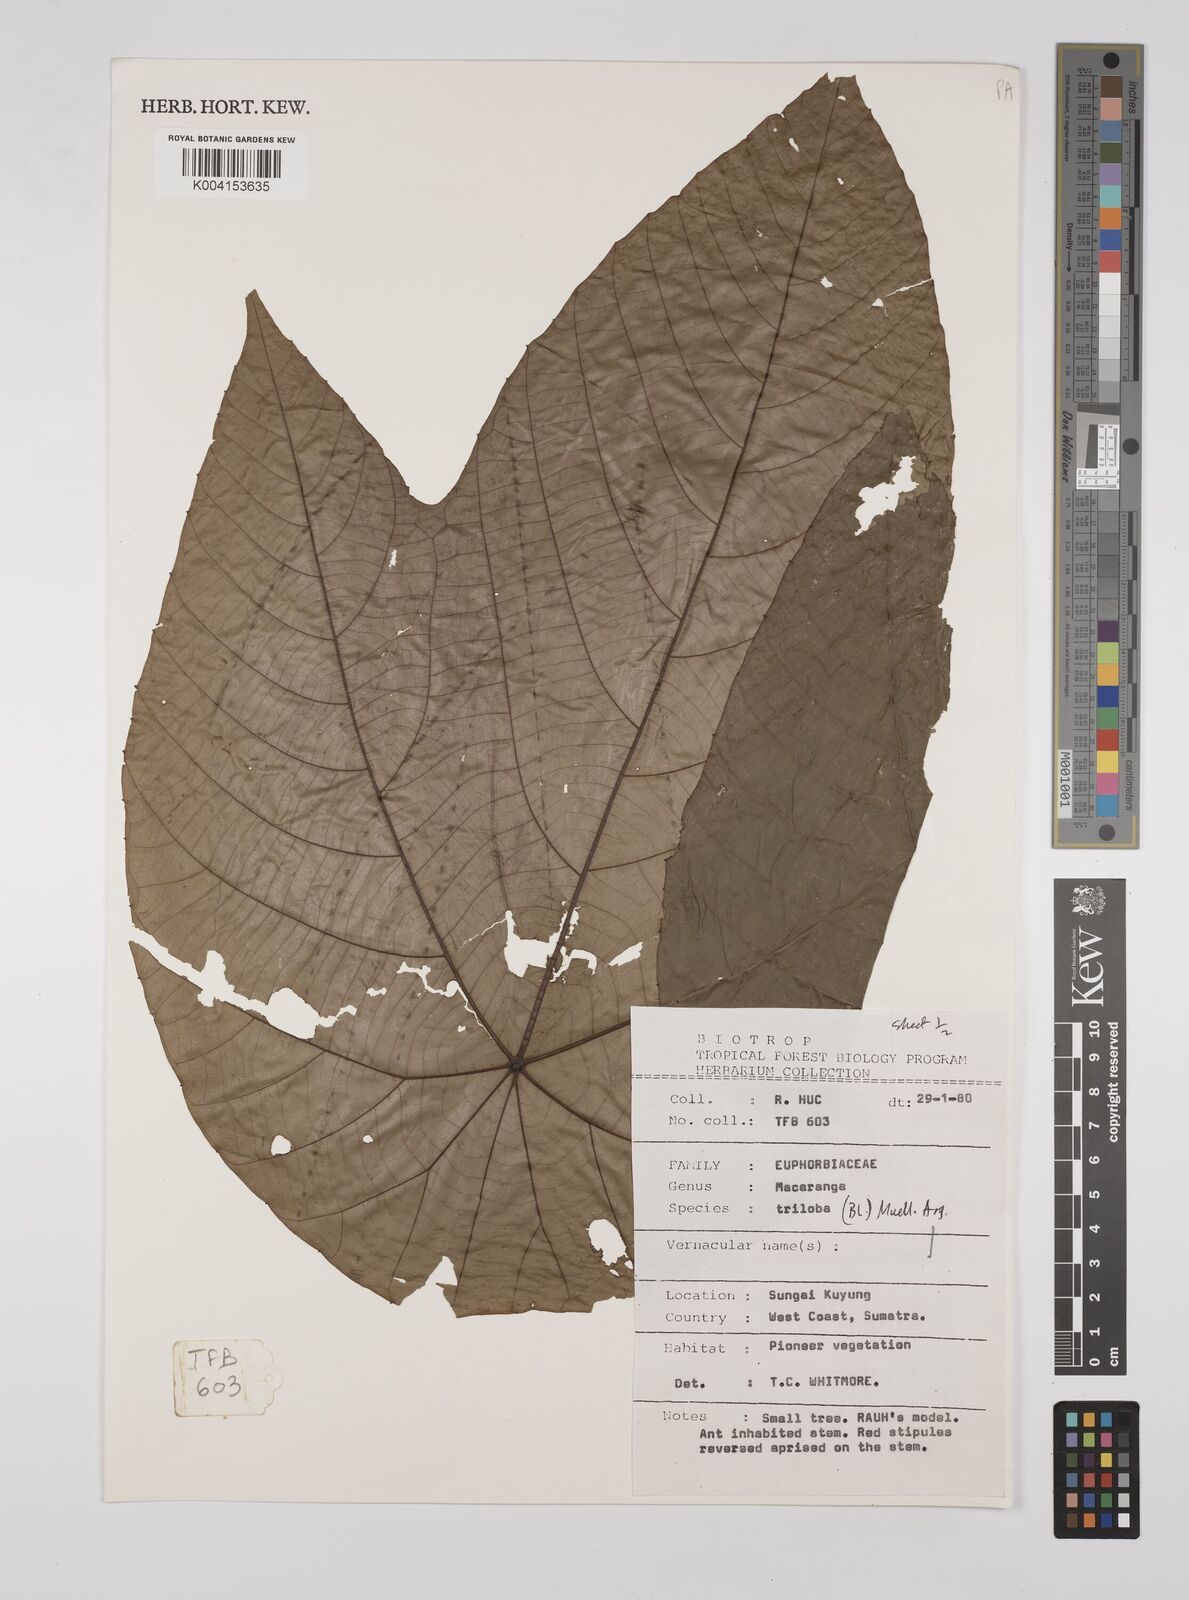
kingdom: Plantae
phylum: Tracheophyta
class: Magnoliopsida
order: Malpighiales
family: Euphorbiaceae
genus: Macaranga
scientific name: Macaranga triloba
